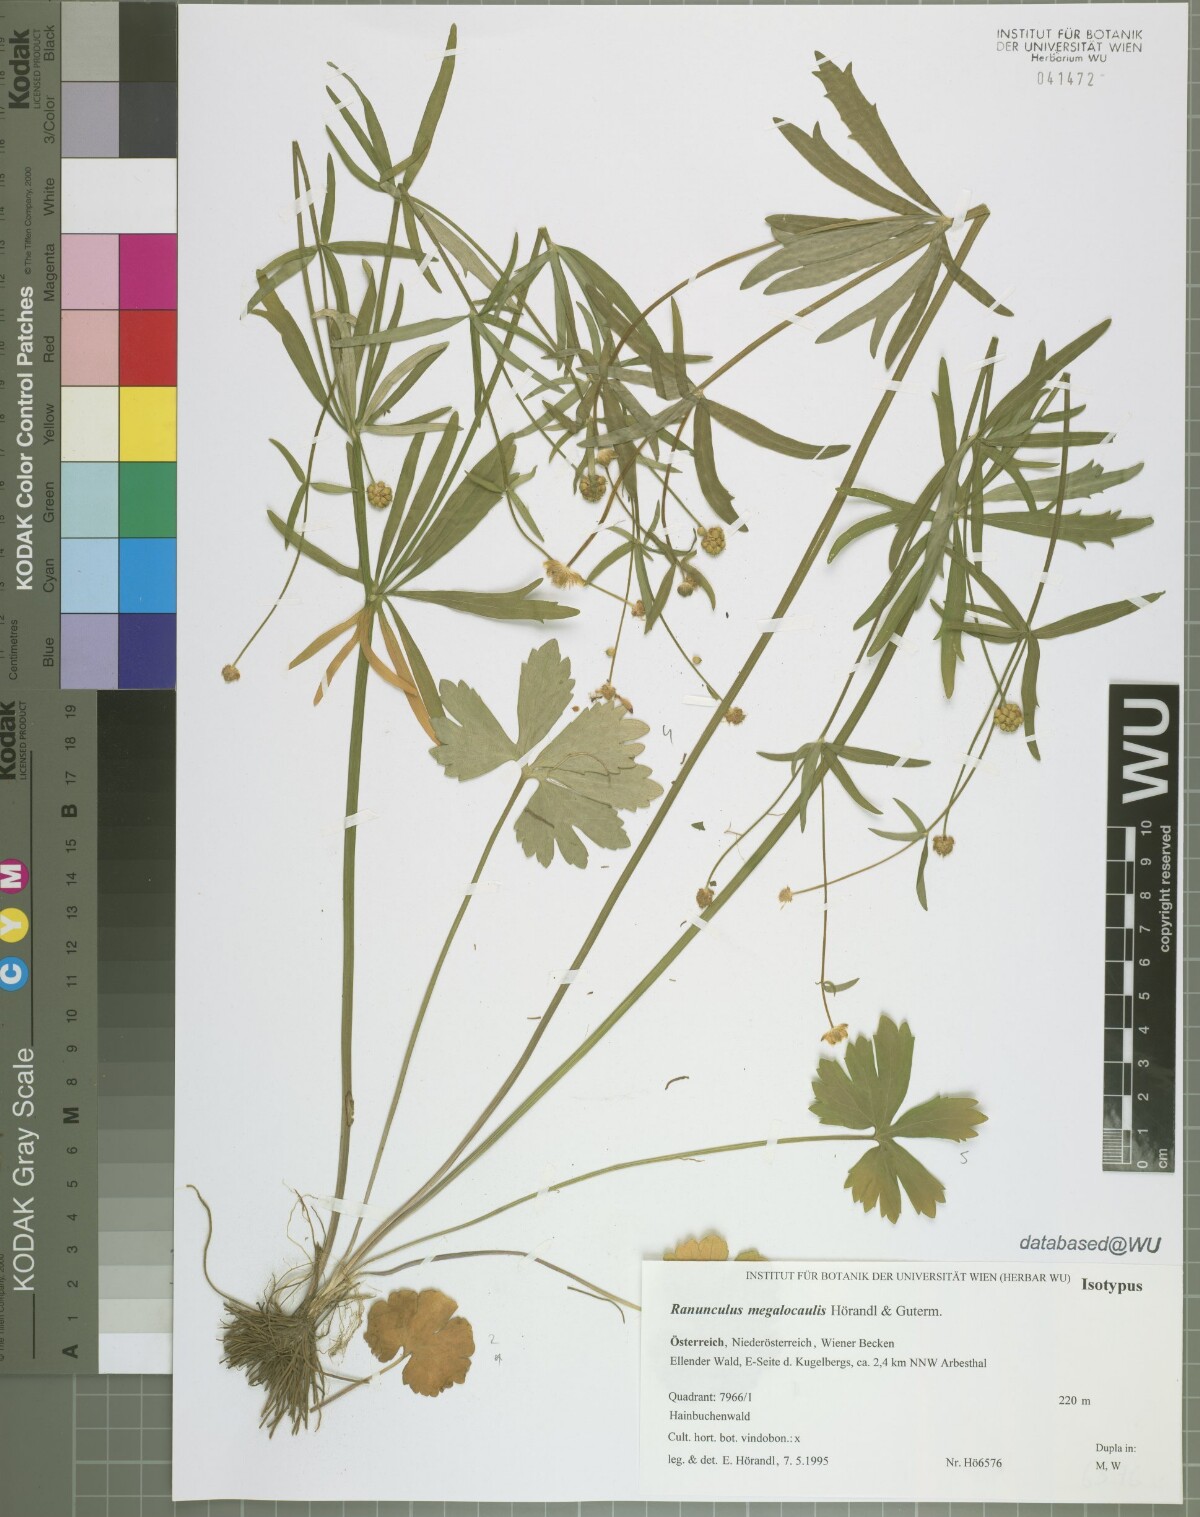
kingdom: Plantae
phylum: Tracheophyta
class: Magnoliopsida
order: Ranunculales
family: Ranunculaceae
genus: Ranunculus
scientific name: Ranunculus megalocaulis
